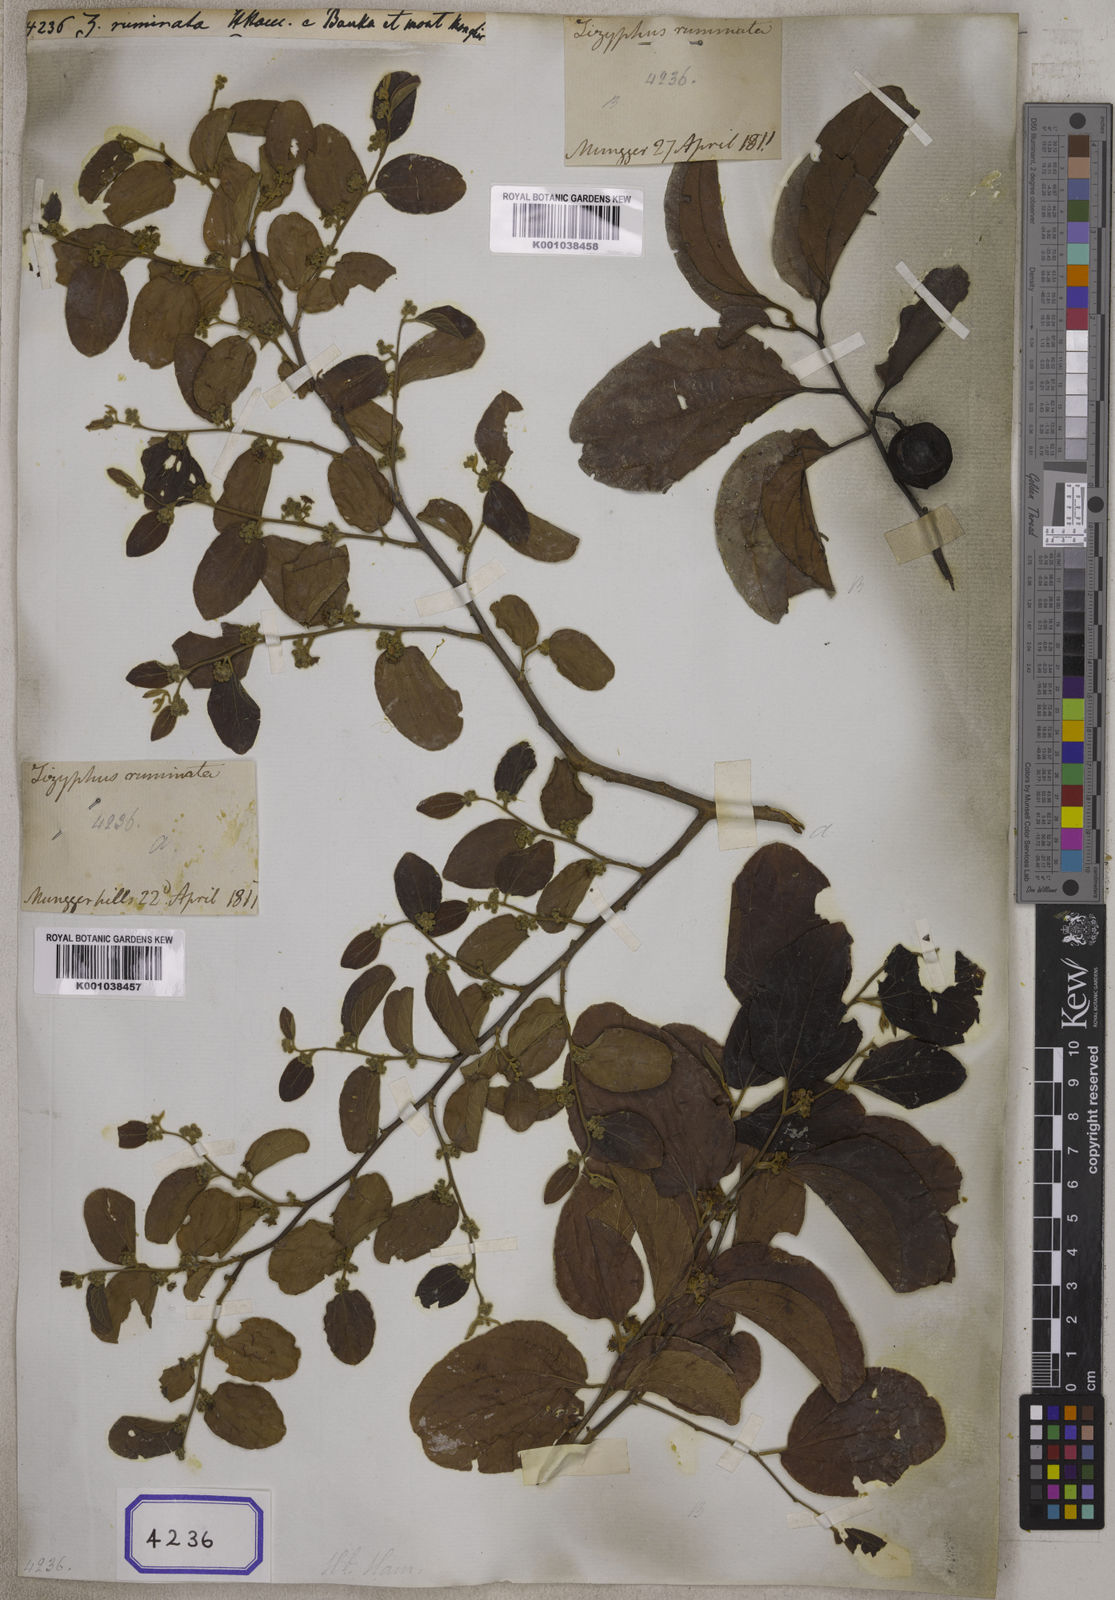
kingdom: Plantae
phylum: Tracheophyta
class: Magnoliopsida
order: Rosales
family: Rhamnaceae
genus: Ziziphus
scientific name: Ziziphus xylopyrus
